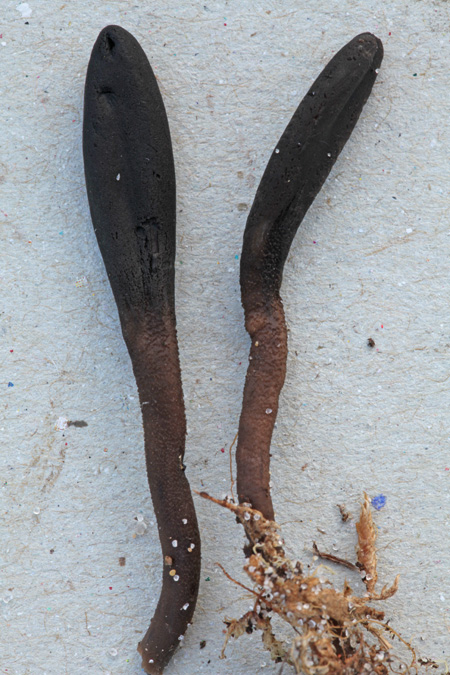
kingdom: Fungi
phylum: Ascomycota
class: Geoglossomycetes
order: Geoglossales
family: Geoglossaceae
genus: Hemileucoglossum
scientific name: Hemileucoglossum elongatum
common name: småsporet jordtunge
